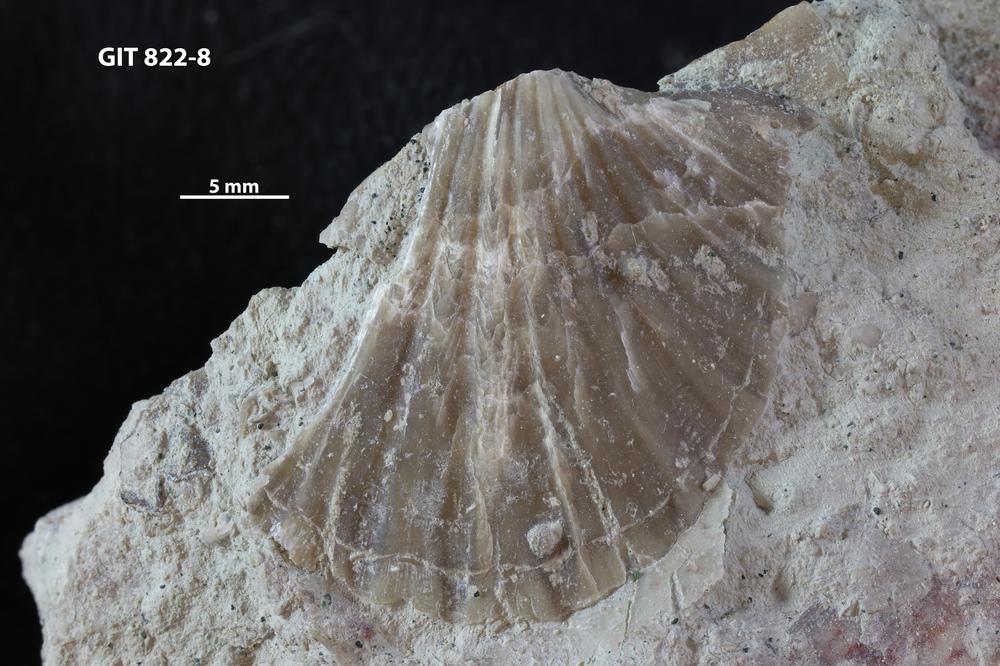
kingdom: Animalia
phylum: Brachiopoda
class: Rhynchonellata
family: Dalmanellidae
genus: Orthis
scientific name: Orthis callactis
